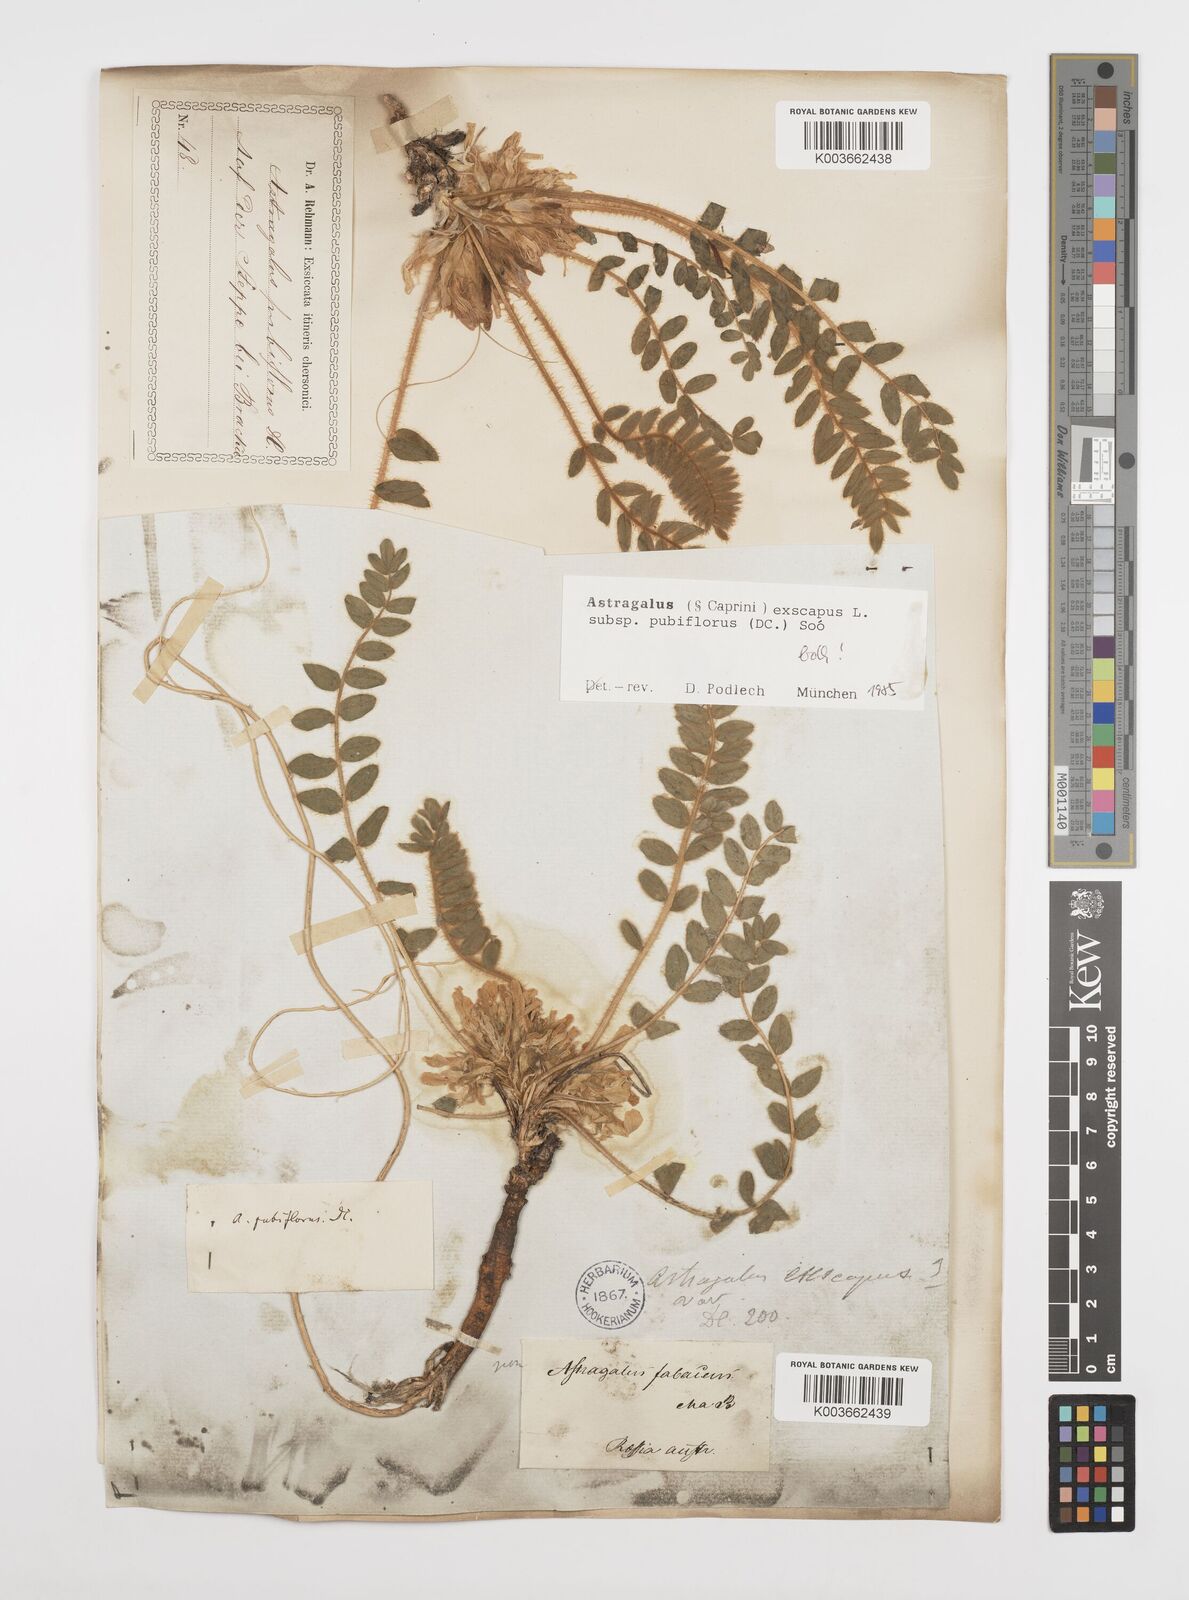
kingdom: Plantae
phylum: Tracheophyta
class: Magnoliopsida
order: Fabales
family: Fabaceae
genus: Astragalus
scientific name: Astragalus exscapus
